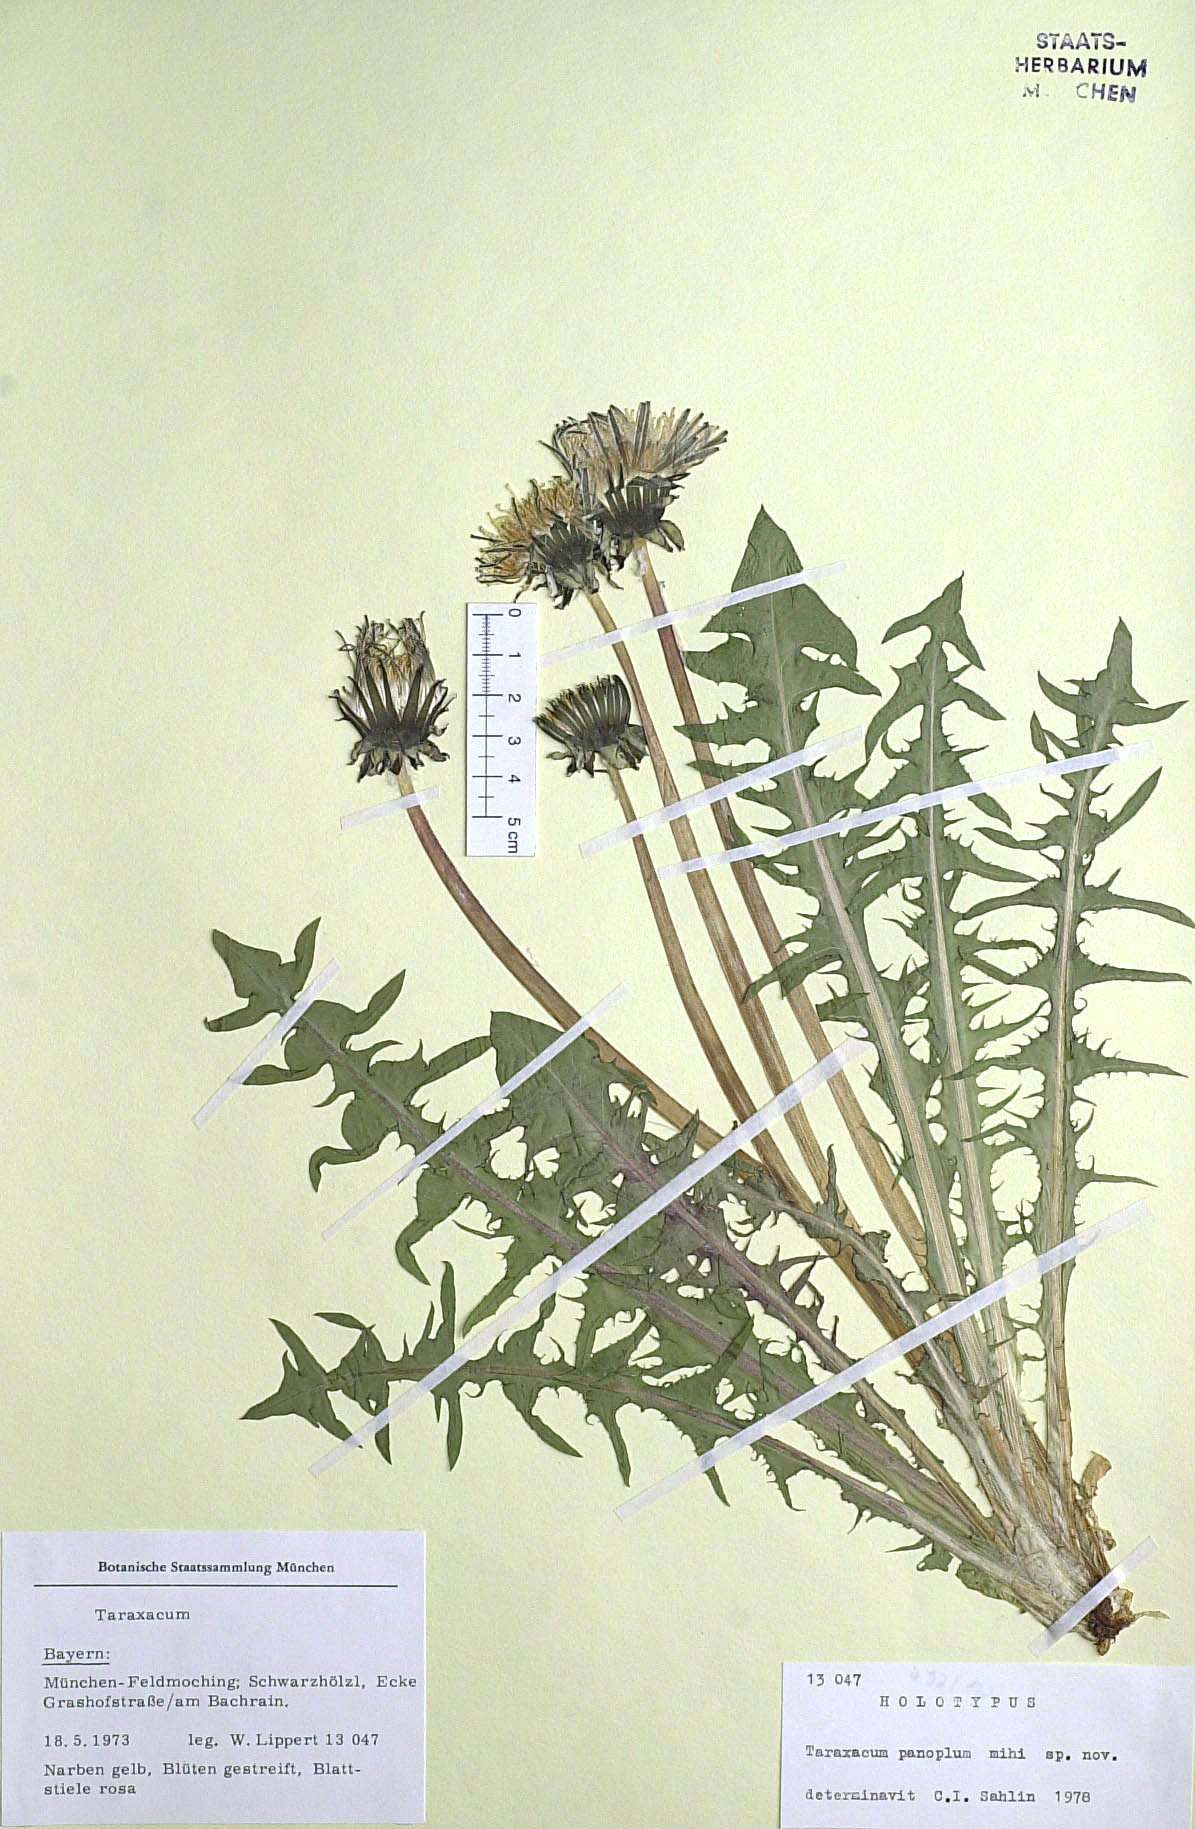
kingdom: Plantae
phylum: Tracheophyta
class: Magnoliopsida
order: Asterales
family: Asteraceae
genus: Taraxacum
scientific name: Taraxacum panoplum
